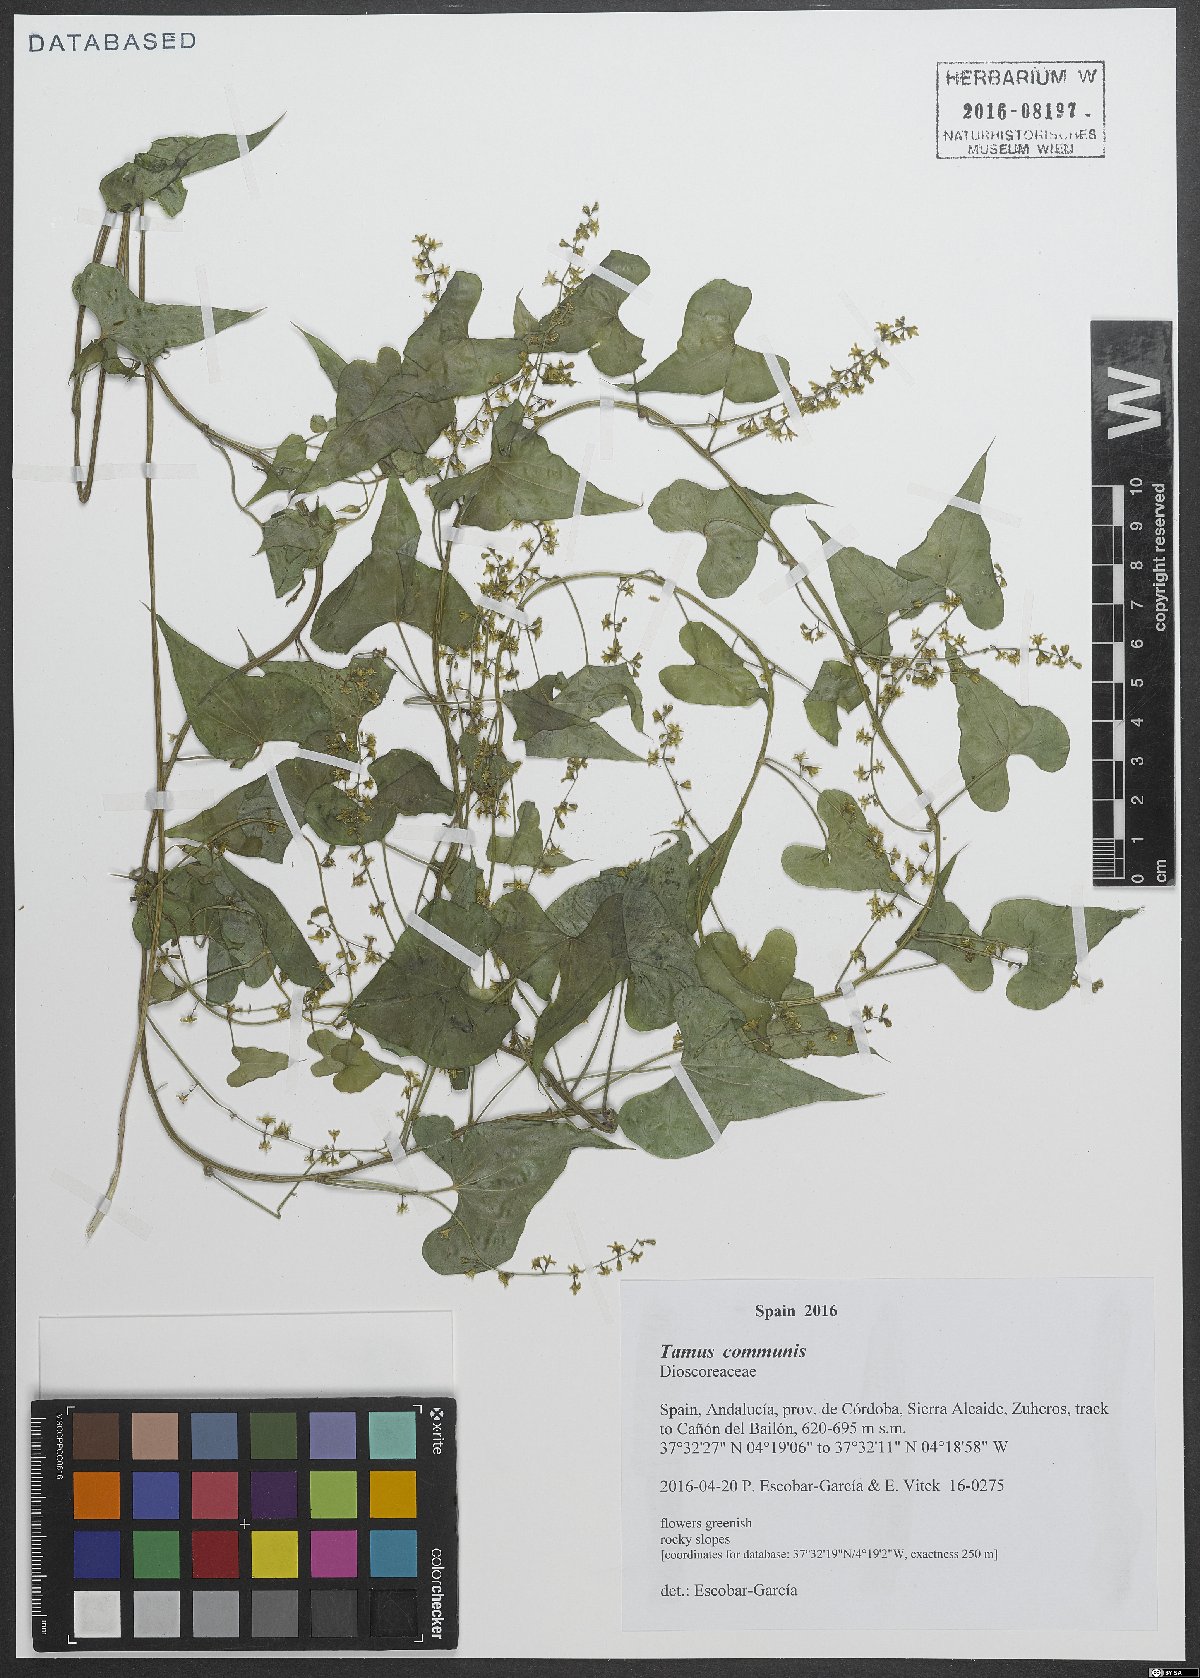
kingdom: Plantae
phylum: Tracheophyta
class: Liliopsida
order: Dioscoreales
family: Dioscoreaceae
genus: Dioscorea
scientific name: Dioscorea communis
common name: Black-bindweed
